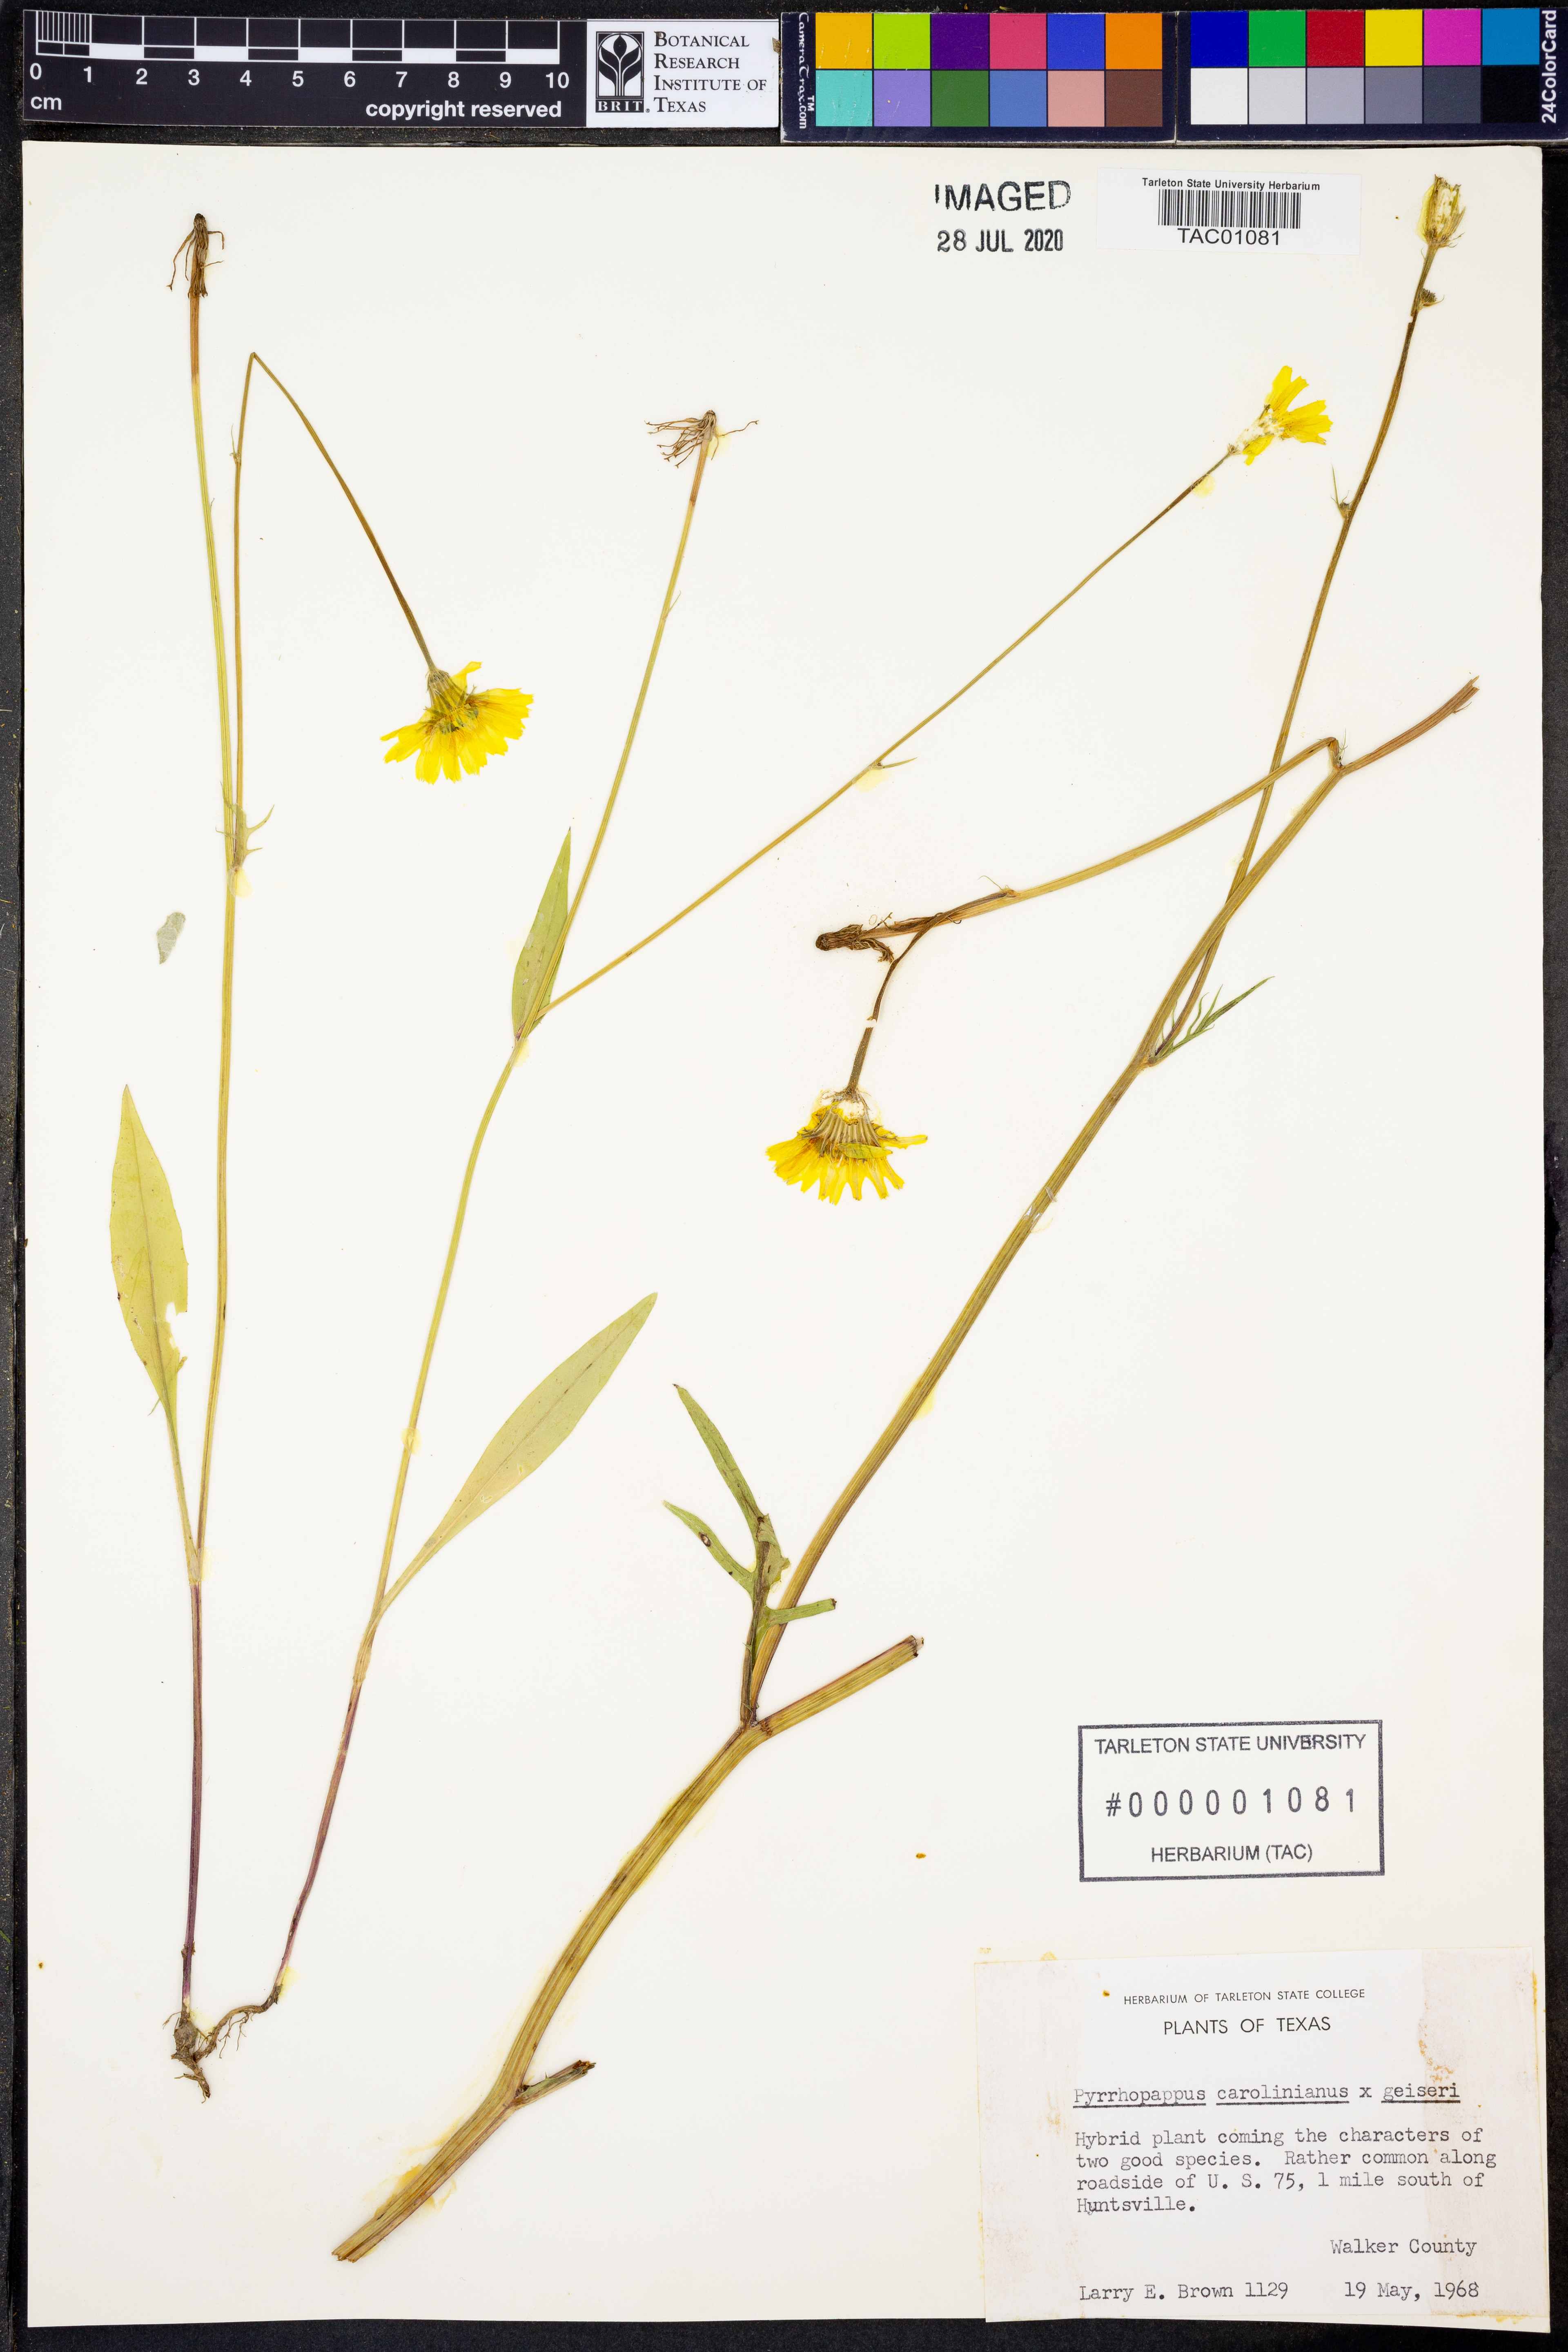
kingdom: Plantae
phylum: Tracheophyta
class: Magnoliopsida
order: Asterales
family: Asteraceae
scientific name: Asteraceae
